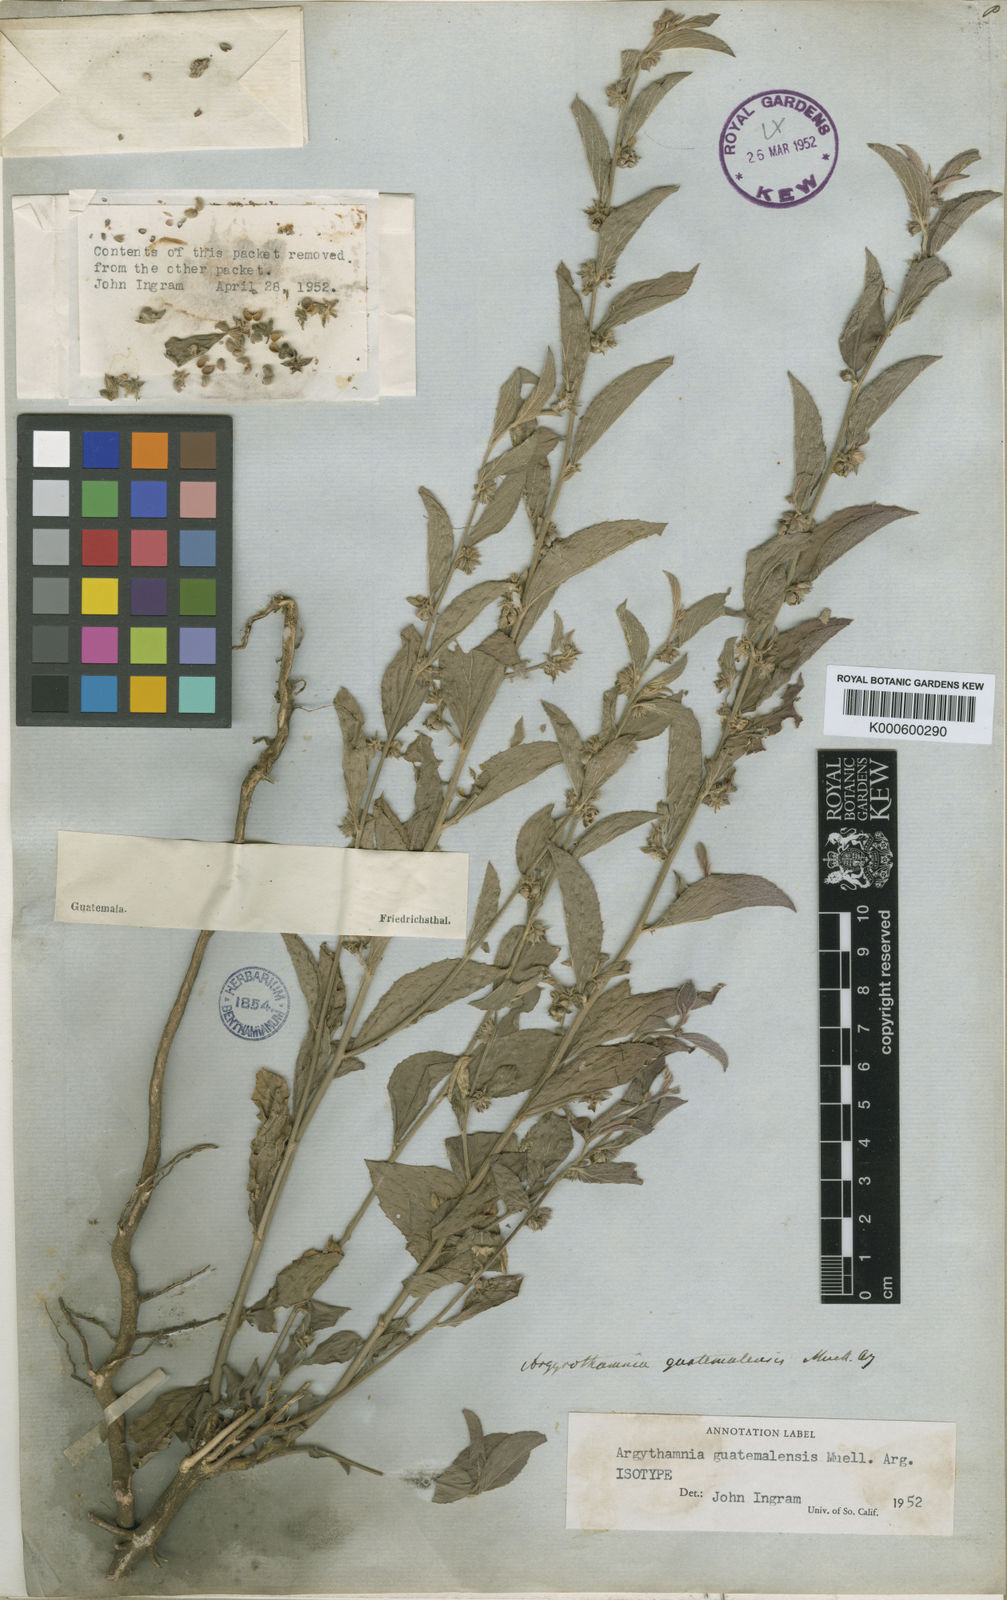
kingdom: Plantae
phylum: Tracheophyta
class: Magnoliopsida
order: Malpighiales
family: Euphorbiaceae
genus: Ditaxis
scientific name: Ditaxis
